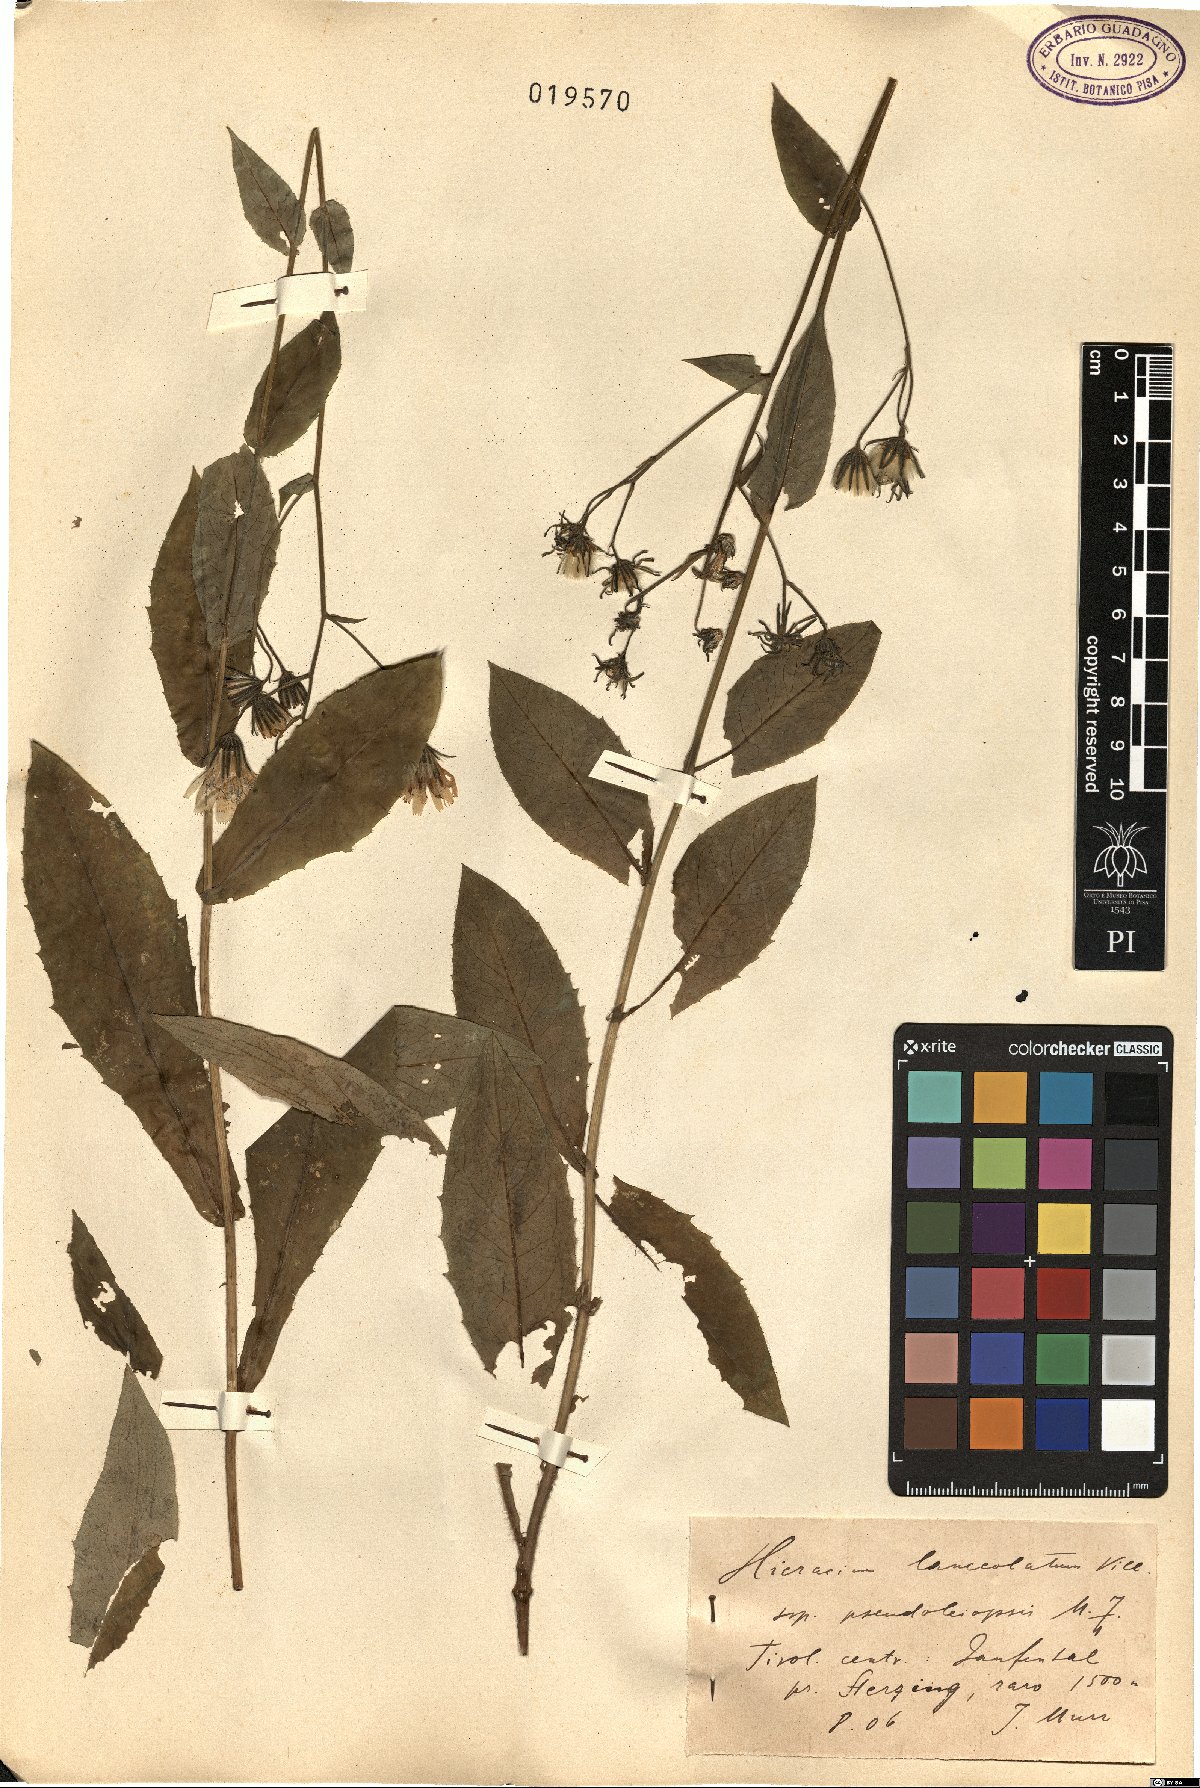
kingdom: Plantae
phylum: Tracheophyta
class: Magnoliopsida
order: Asterales
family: Asteraceae
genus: Hieracium
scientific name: Hieracium symphytaceum
